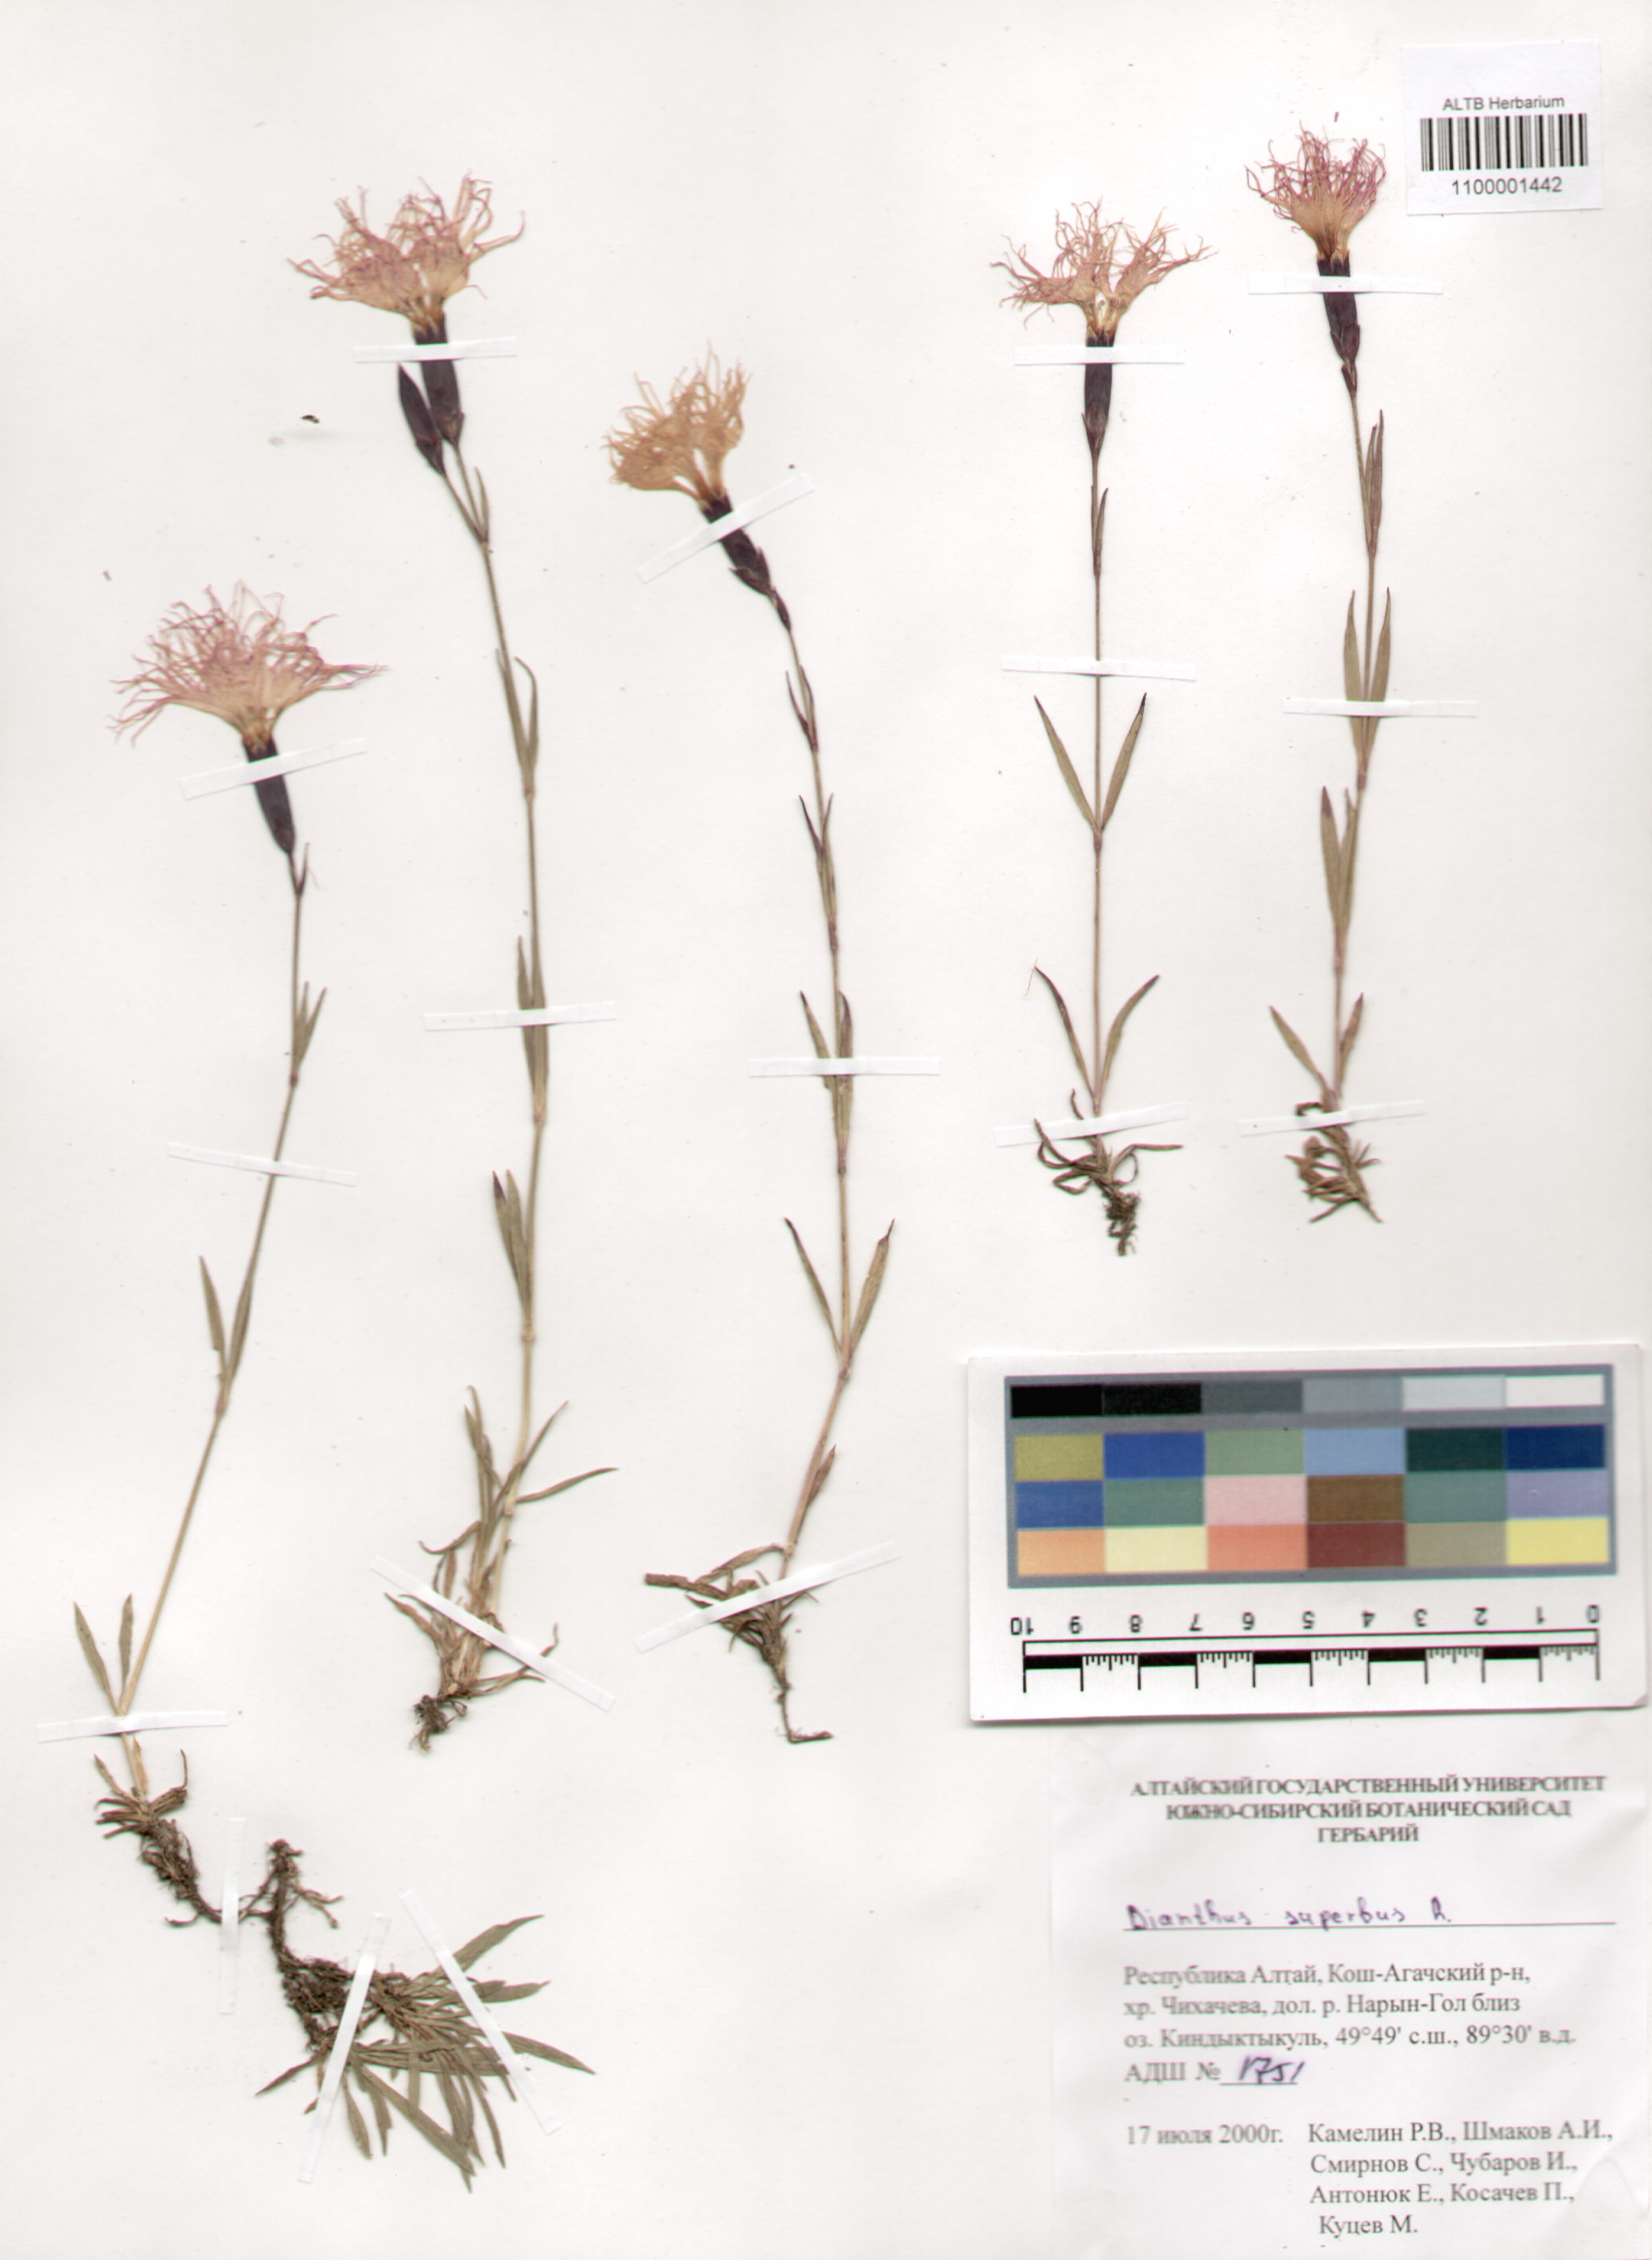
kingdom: Plantae
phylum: Tracheophyta
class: Magnoliopsida
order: Caryophyllales
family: Caryophyllaceae
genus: Dianthus
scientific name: Dianthus superbus
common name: Fringed pink
